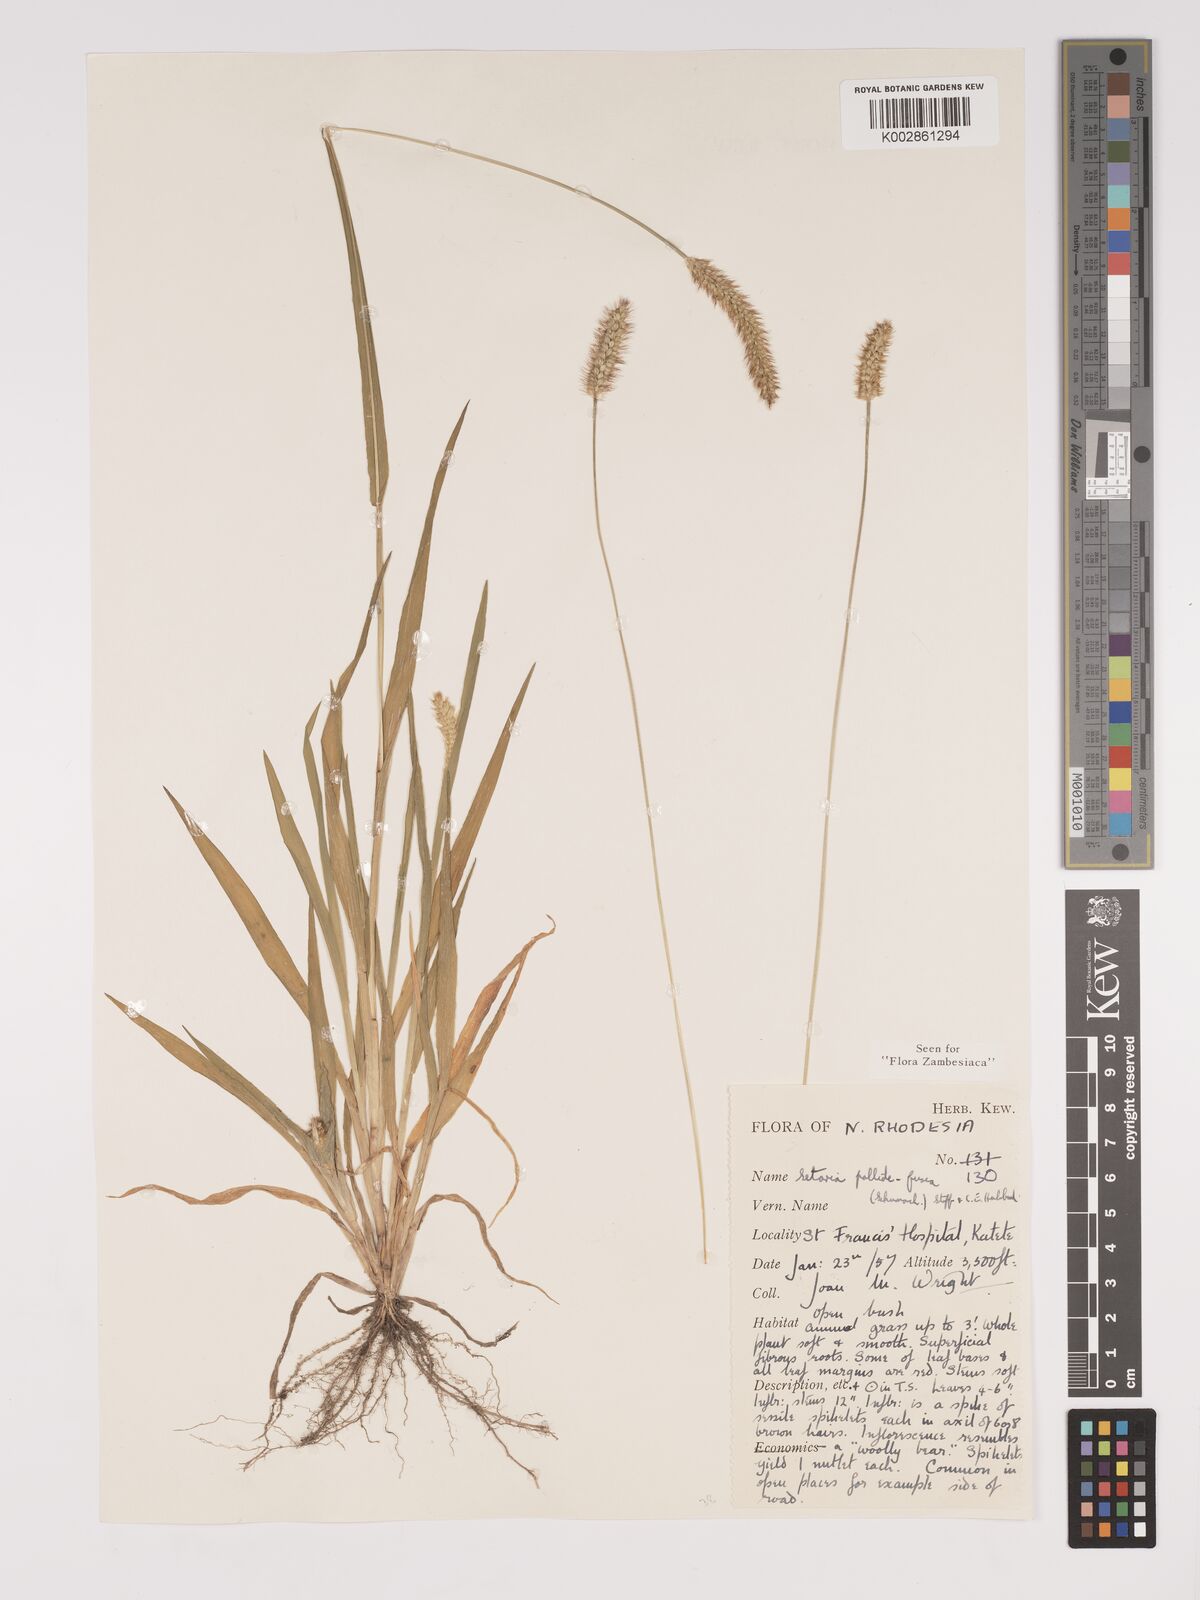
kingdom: Plantae
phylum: Tracheophyta
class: Liliopsida
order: Poales
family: Poaceae
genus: Setaria
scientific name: Setaria pumila
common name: Yellow bristle-grass
